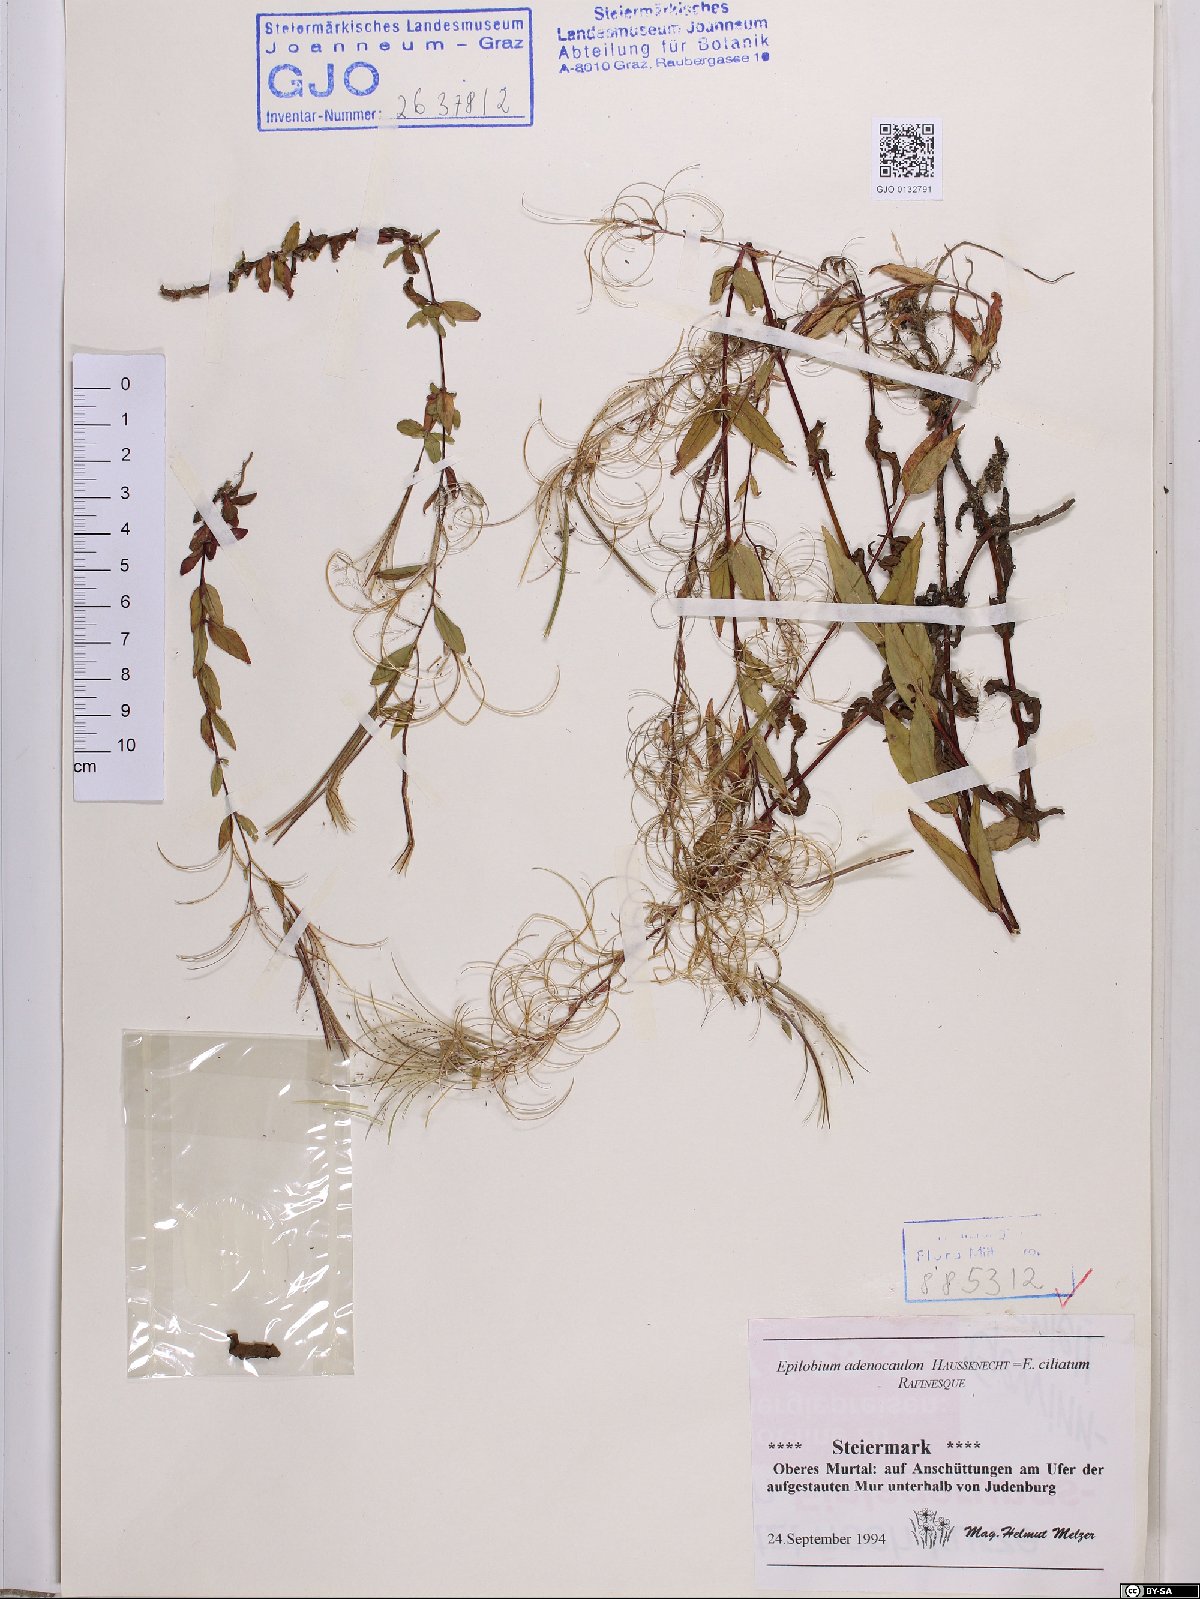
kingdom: Plantae
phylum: Tracheophyta
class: Magnoliopsida
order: Myrtales
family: Onagraceae
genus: Epilobium
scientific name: Epilobium ciliatum
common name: American willowherb
